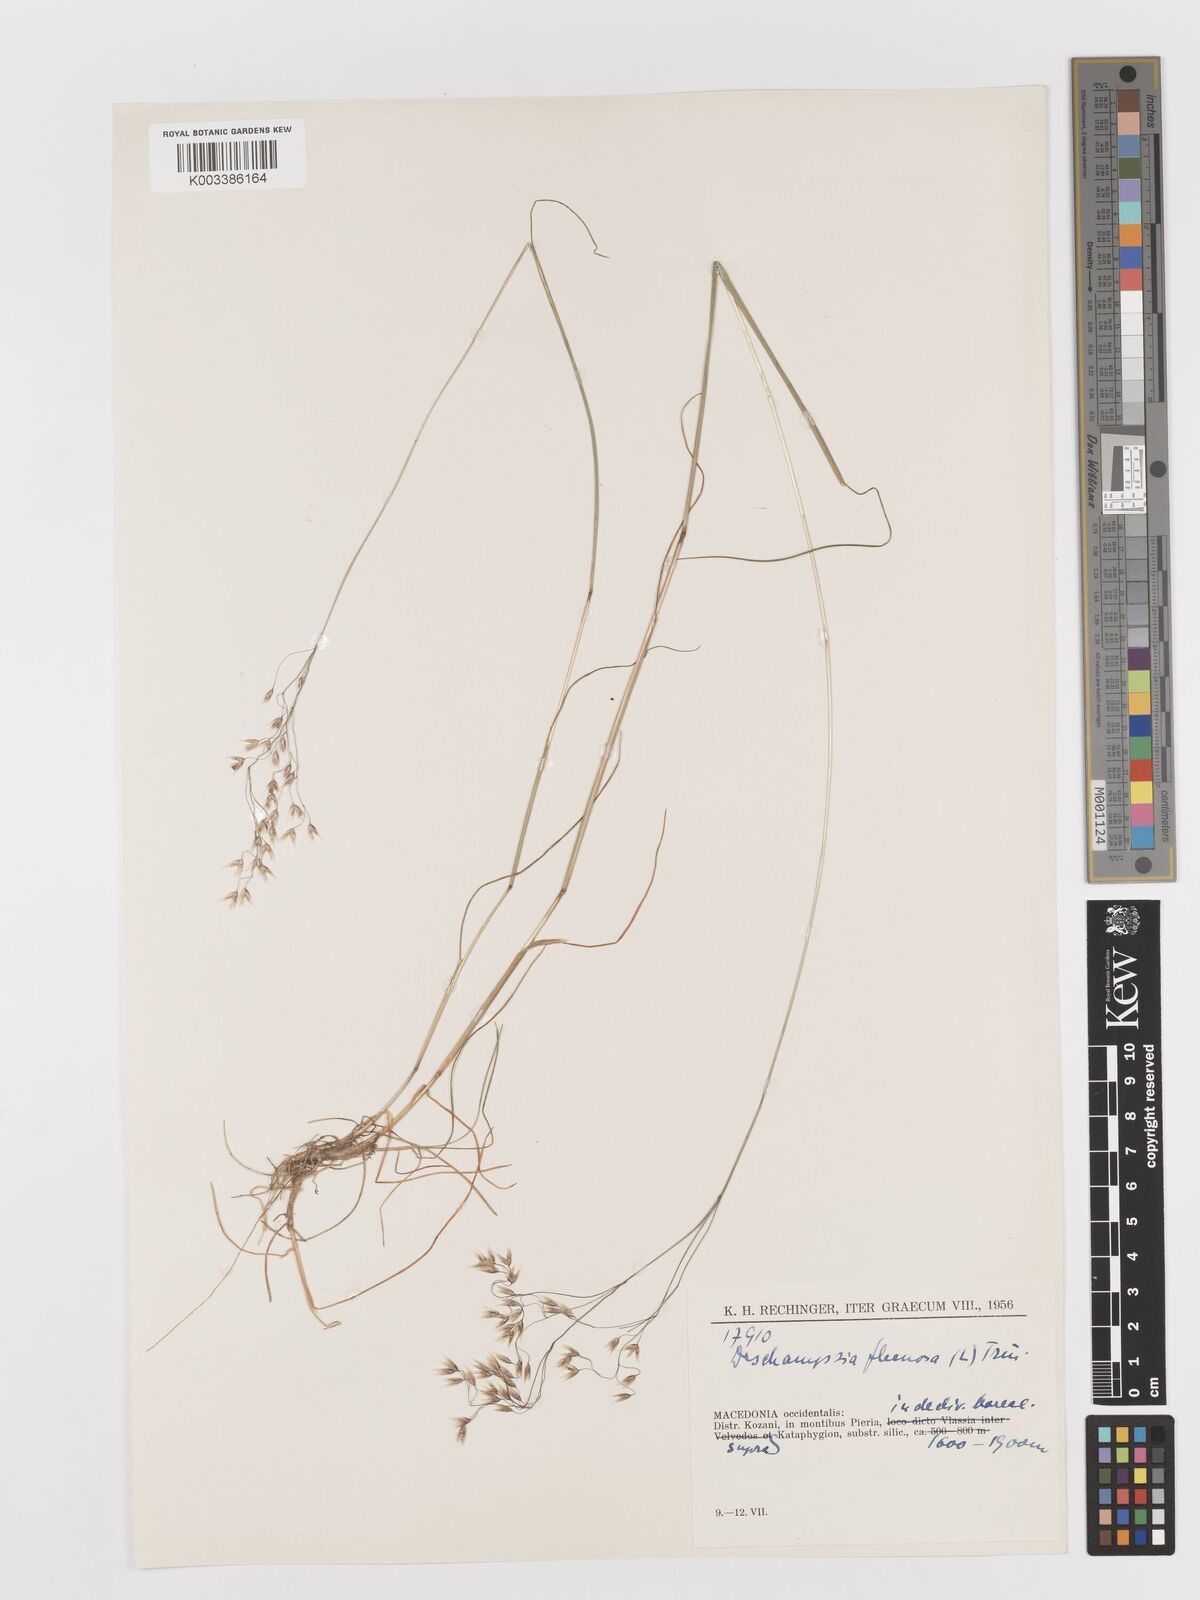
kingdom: Plantae
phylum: Tracheophyta
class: Liliopsida
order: Poales
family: Poaceae
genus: Avenella
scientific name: Avenella flexuosa
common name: Wavy hairgrass
